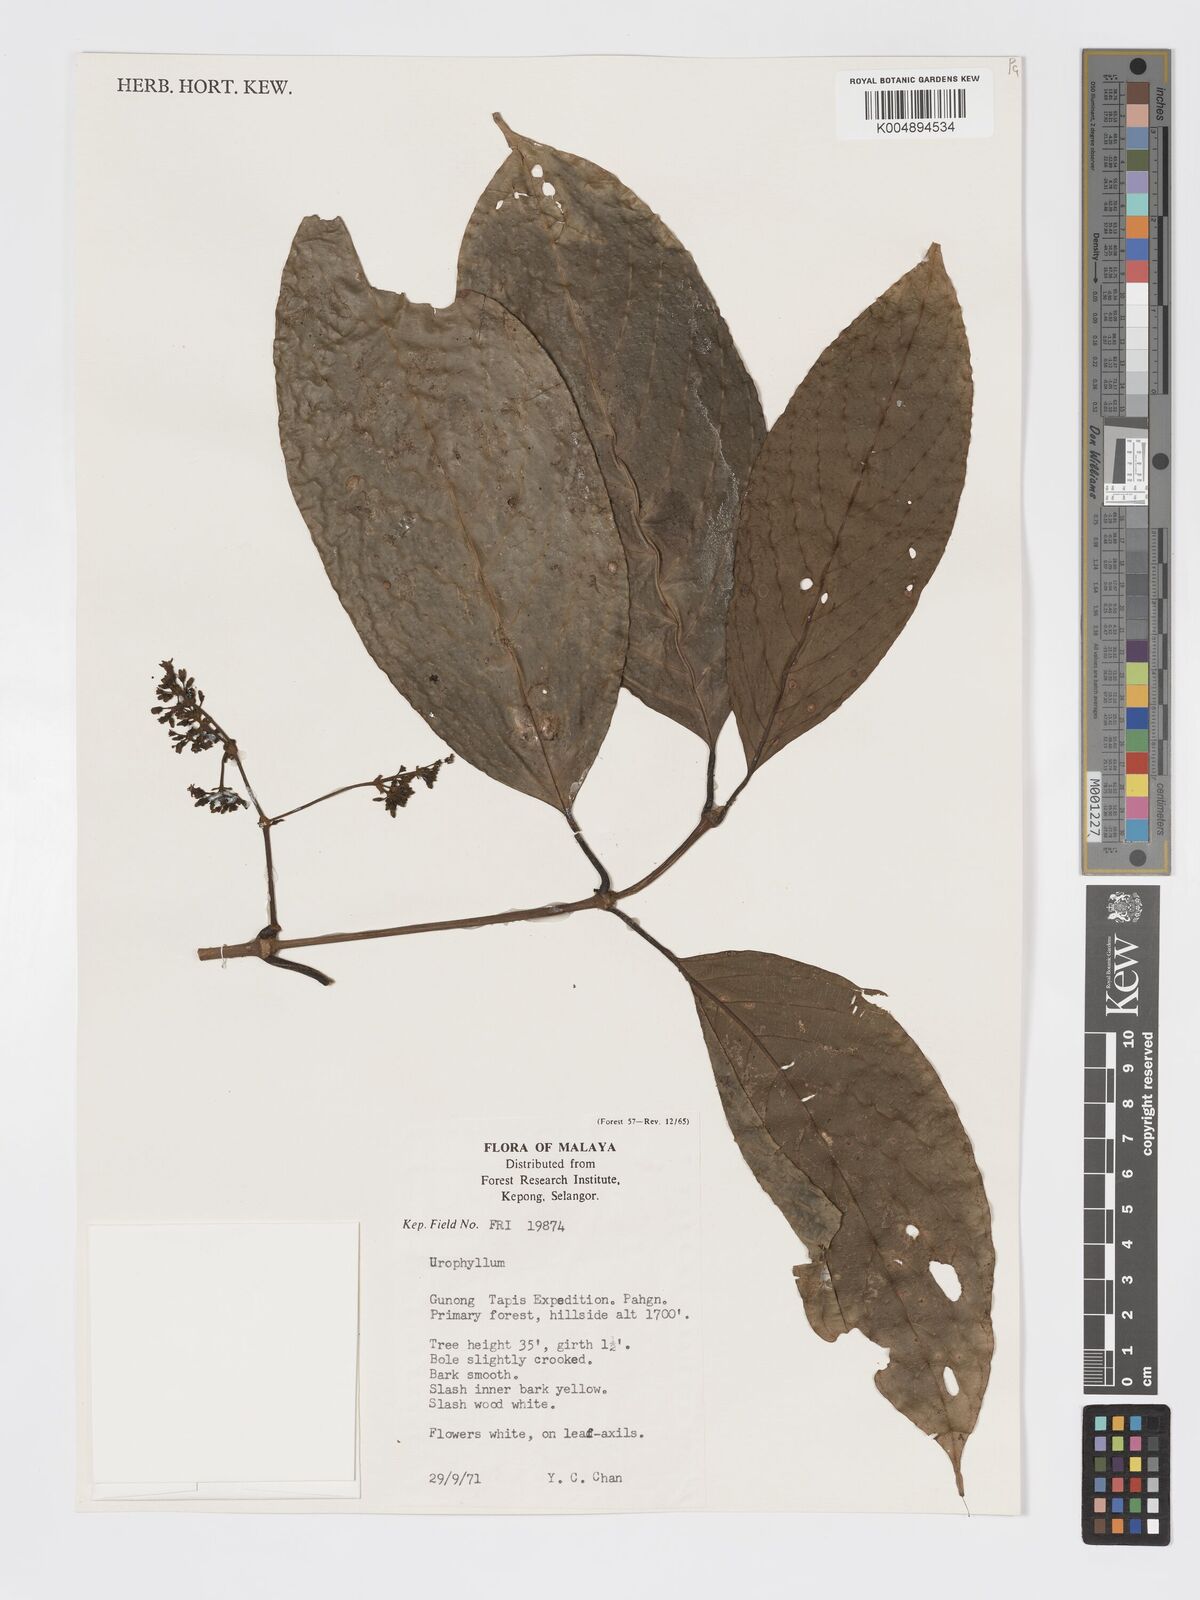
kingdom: Plantae
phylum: Tracheophyta
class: Magnoliopsida
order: Gentianales
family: Rubiaceae
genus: Urophyllum
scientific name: Urophyllum malayense
